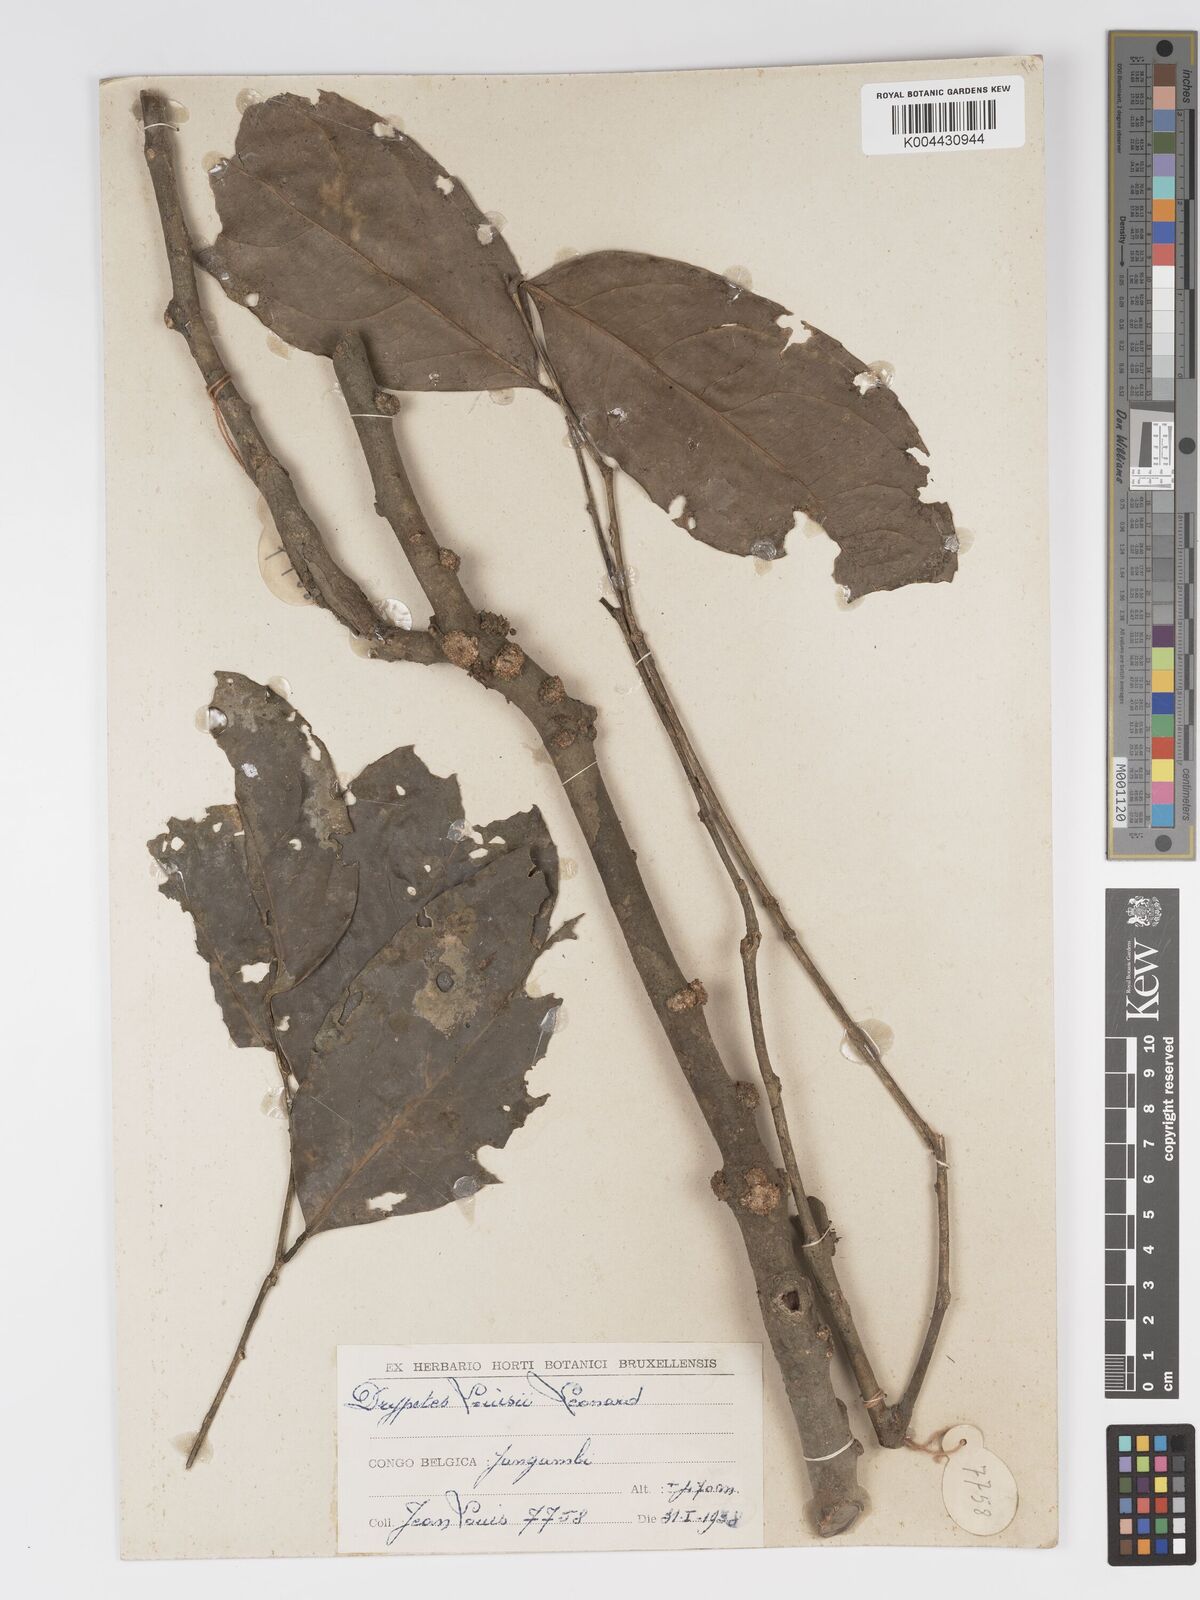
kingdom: Plantae
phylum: Tracheophyta
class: Magnoliopsida
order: Malpighiales
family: Putranjivaceae
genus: Drypetes
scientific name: Drypetes
